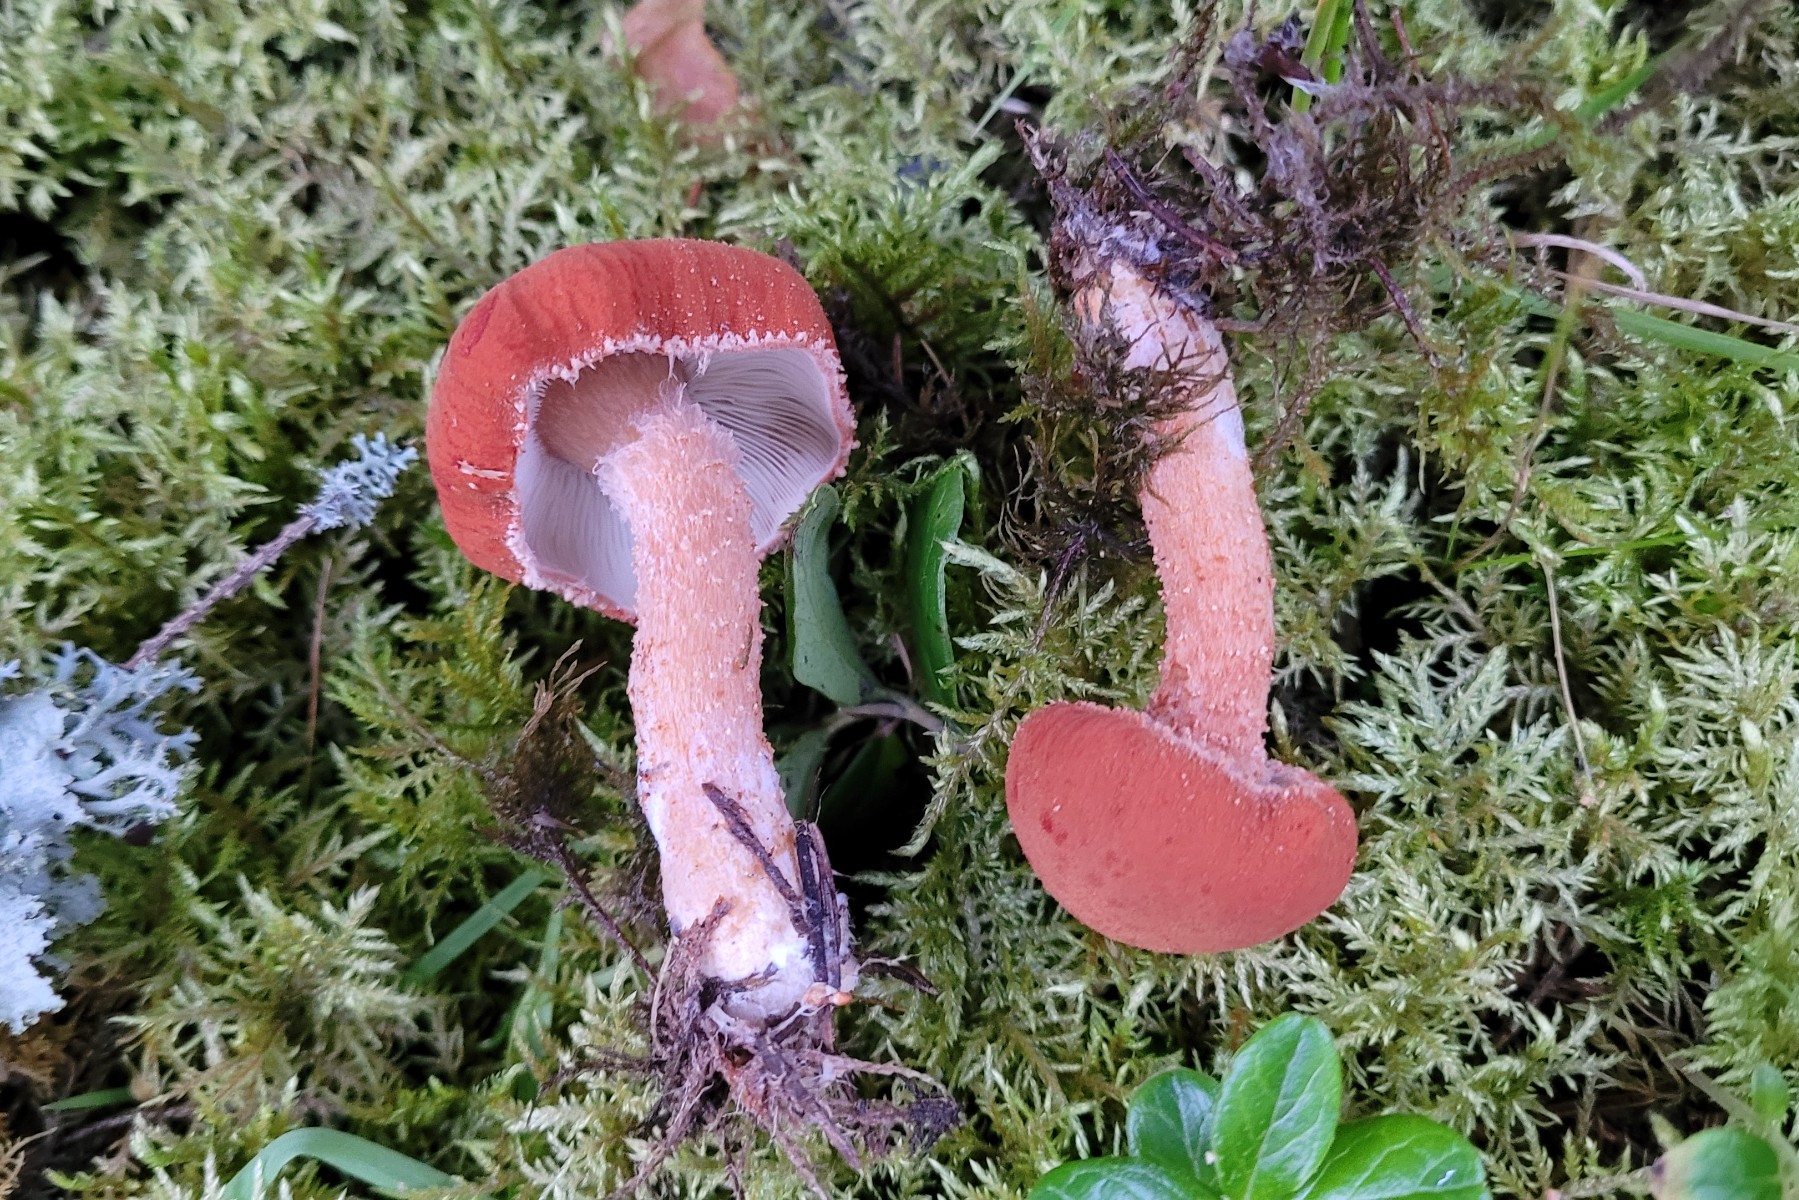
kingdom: Fungi
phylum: Basidiomycota
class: Agaricomycetes
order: Agaricales
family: Agaricaceae
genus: Cystodermella
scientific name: Cystodermella cinnabarina
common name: cinnober-grynhat
